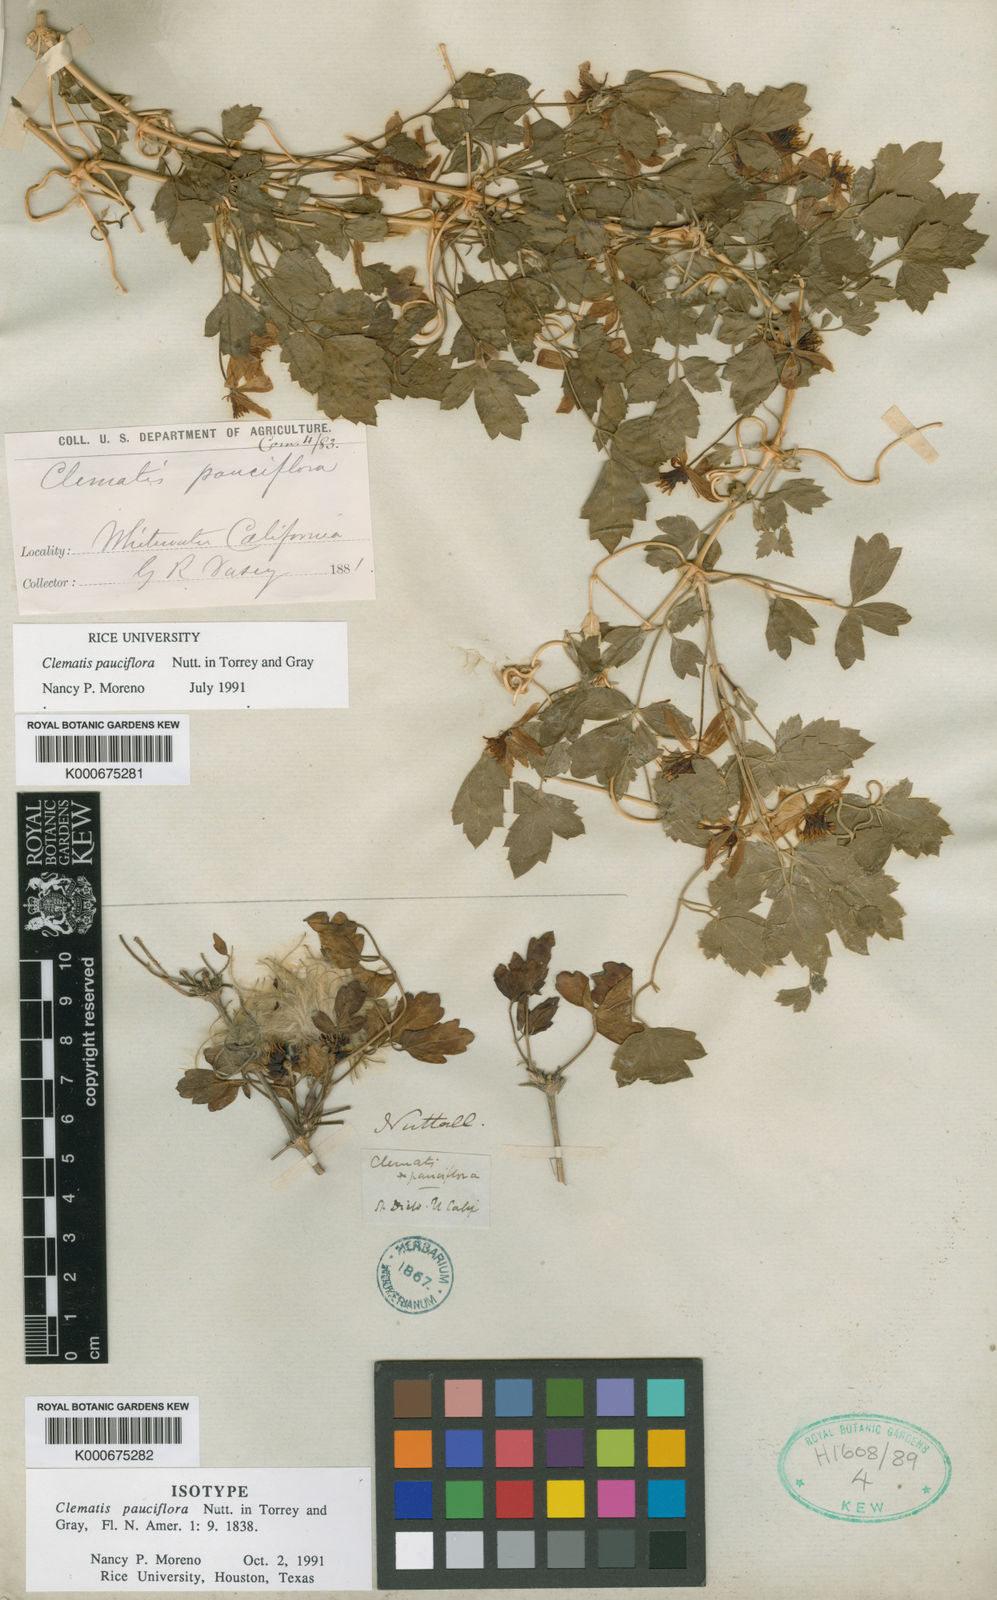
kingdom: Plantae
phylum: Tracheophyta
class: Magnoliopsida
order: Ranunculales
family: Ranunculaceae
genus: Clematis
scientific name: Clematis pauciflora
